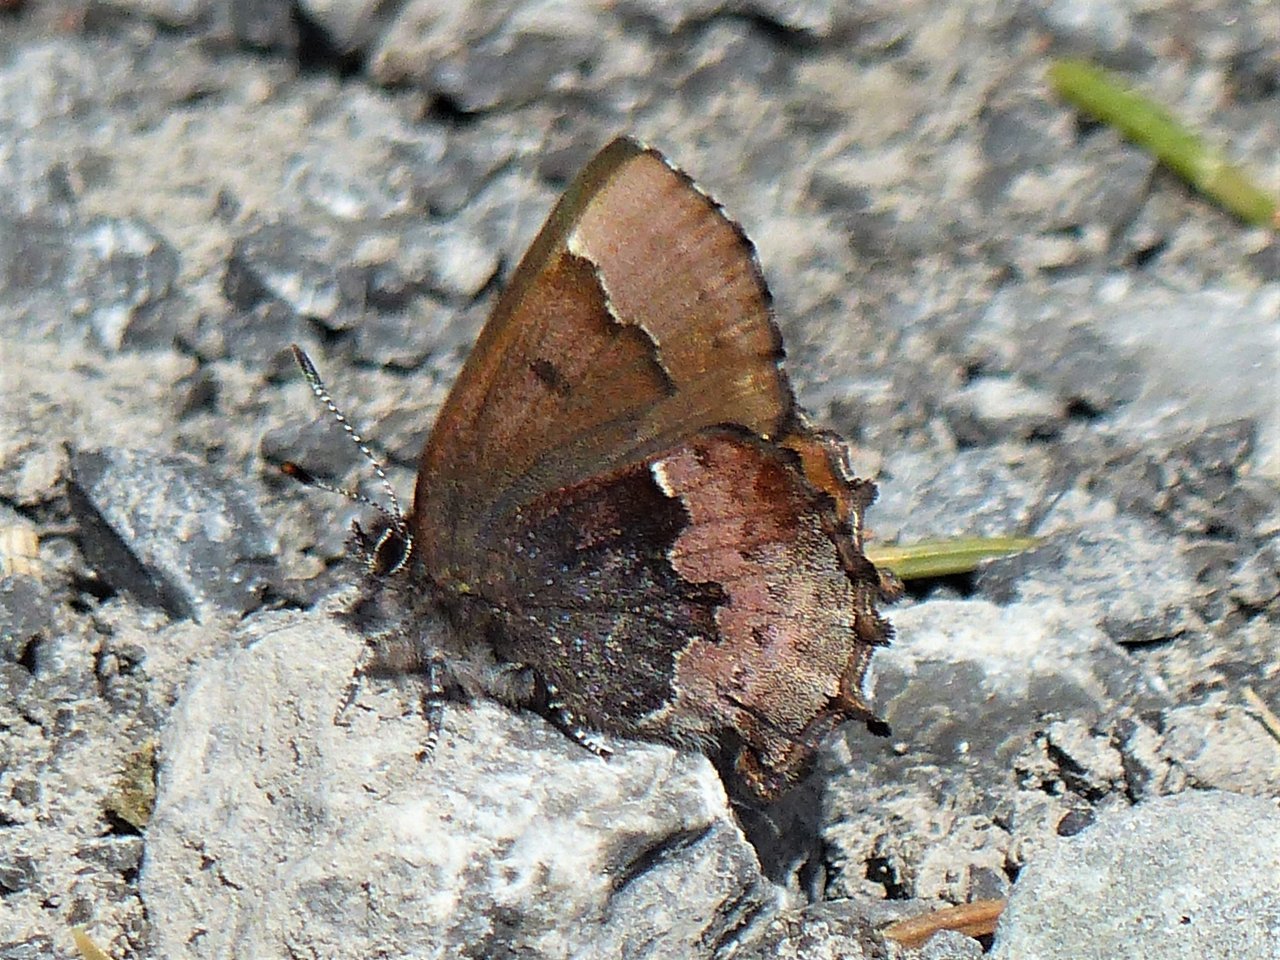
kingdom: Animalia
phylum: Arthropoda
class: Insecta
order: Lepidoptera
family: Lycaenidae
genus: Incisalia
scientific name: Incisalia henrici
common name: Henry's Elfin
